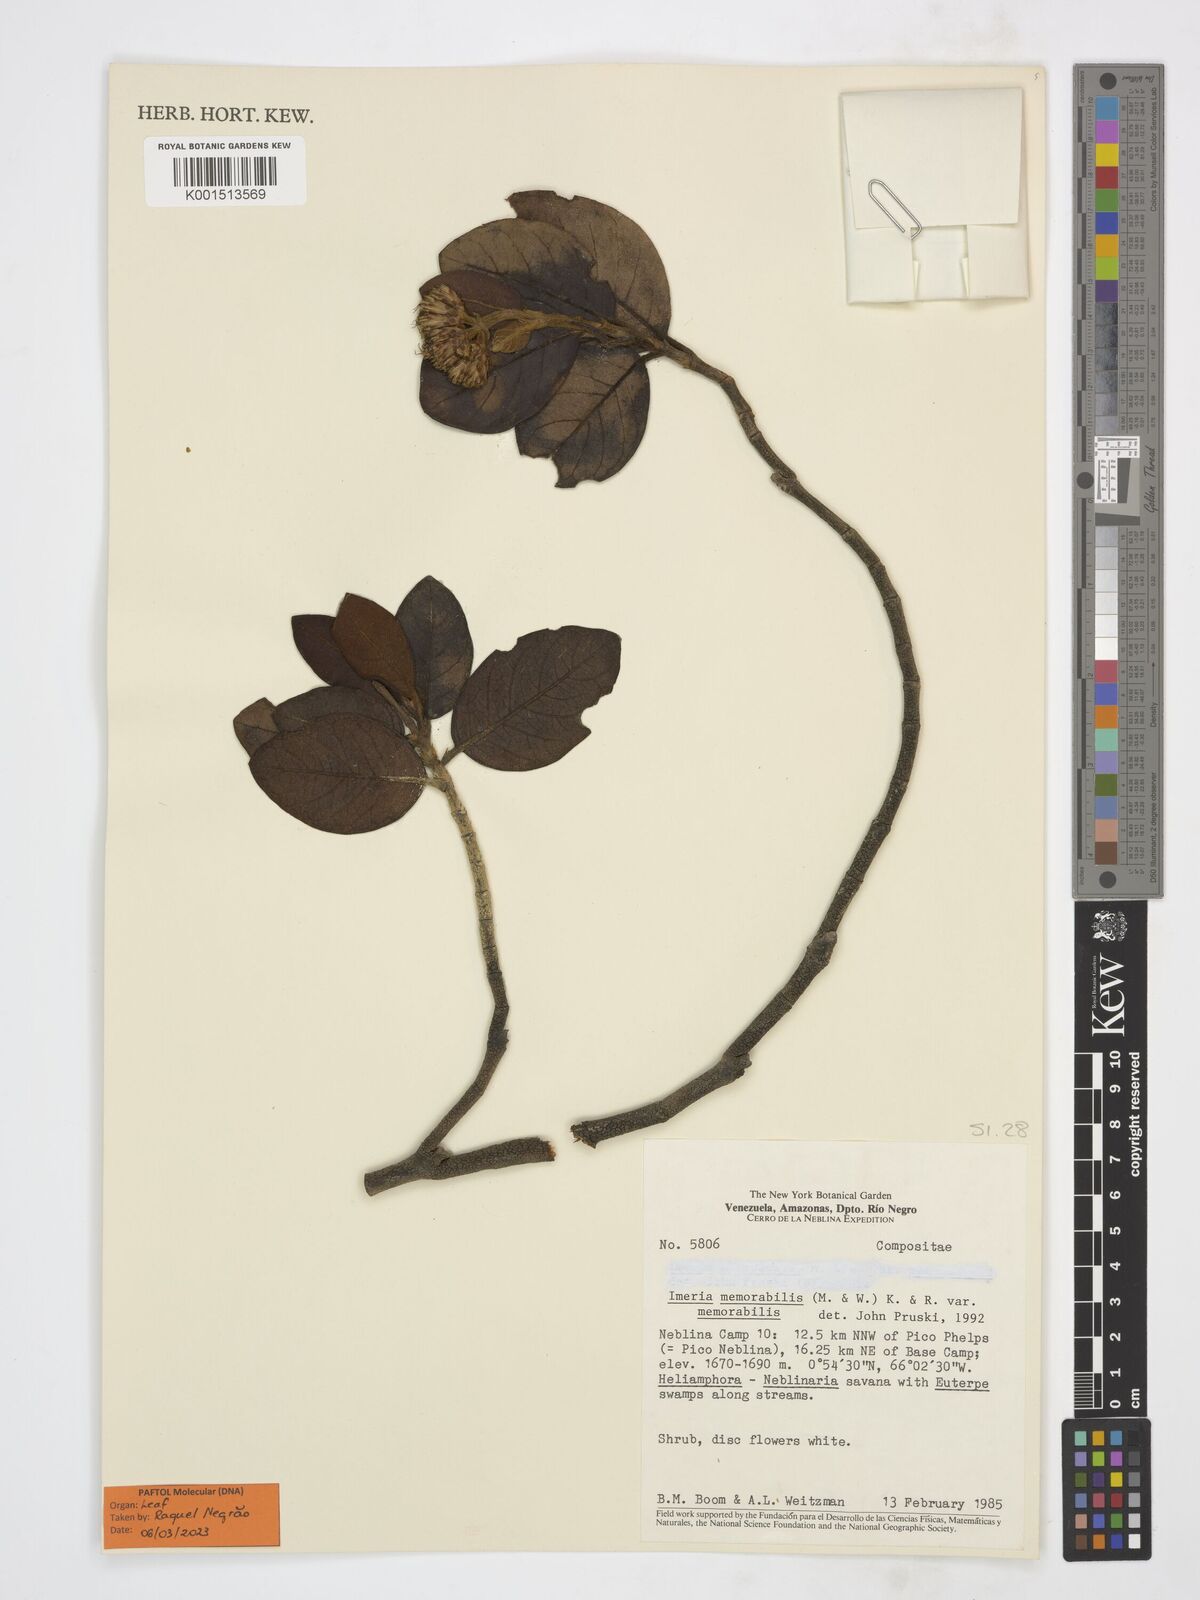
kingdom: Plantae
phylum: Tracheophyta
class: Magnoliopsida
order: Asterales
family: Asteraceae
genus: Imeria
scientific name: Imeria memorabilis
